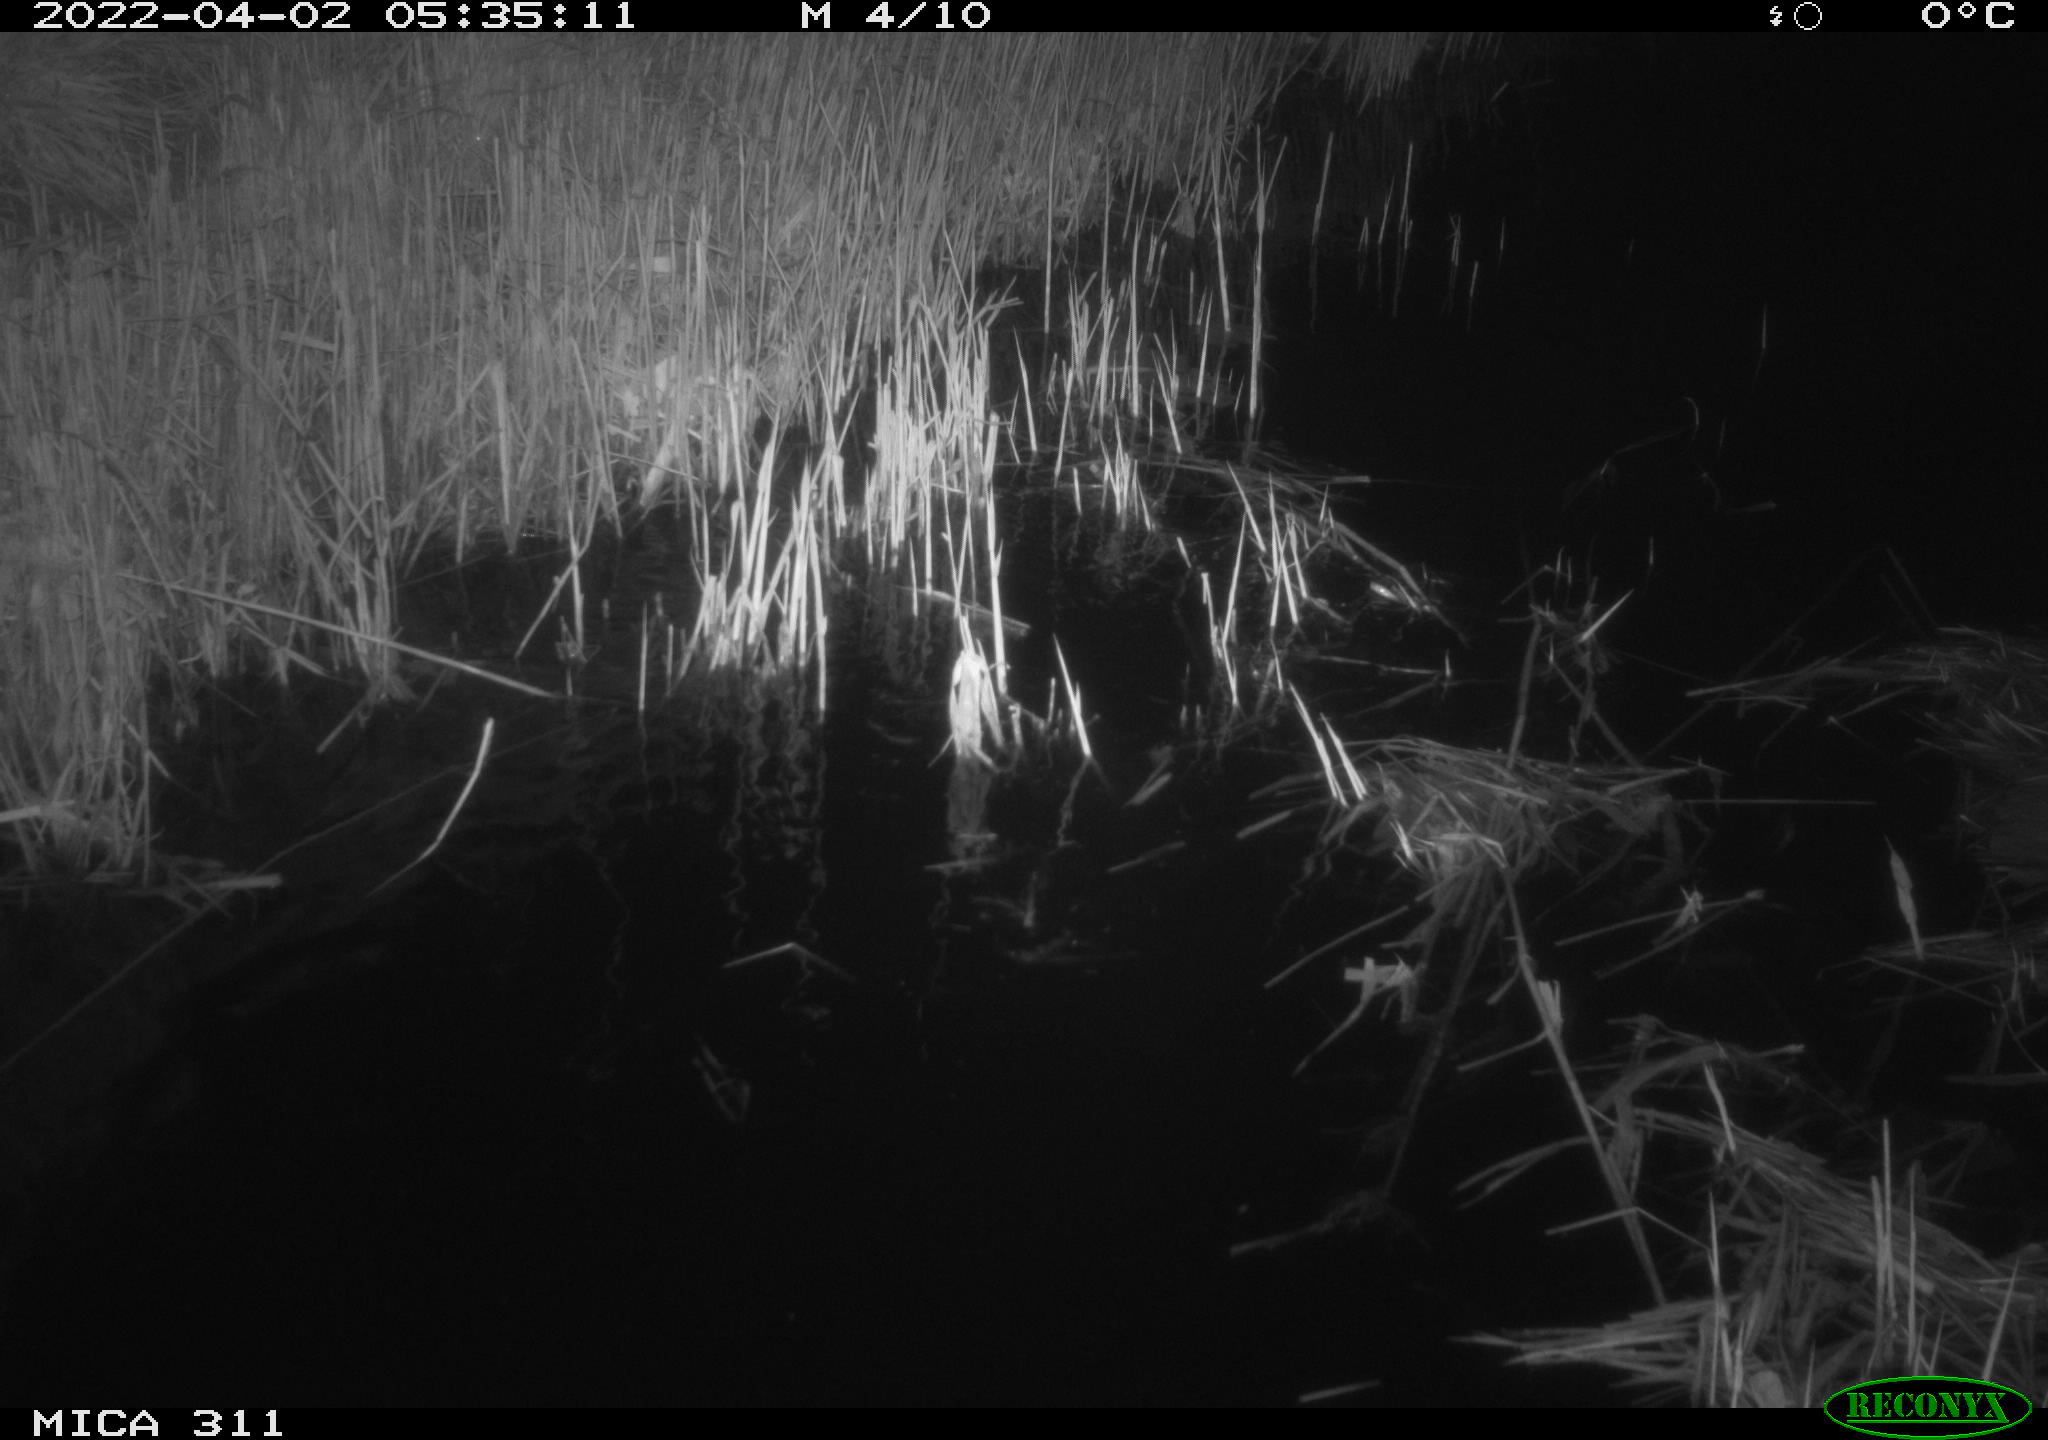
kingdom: Animalia
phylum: Chordata
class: Aves
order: Anseriformes
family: Anatidae
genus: Anas
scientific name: Anas platyrhynchos
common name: Mallard
